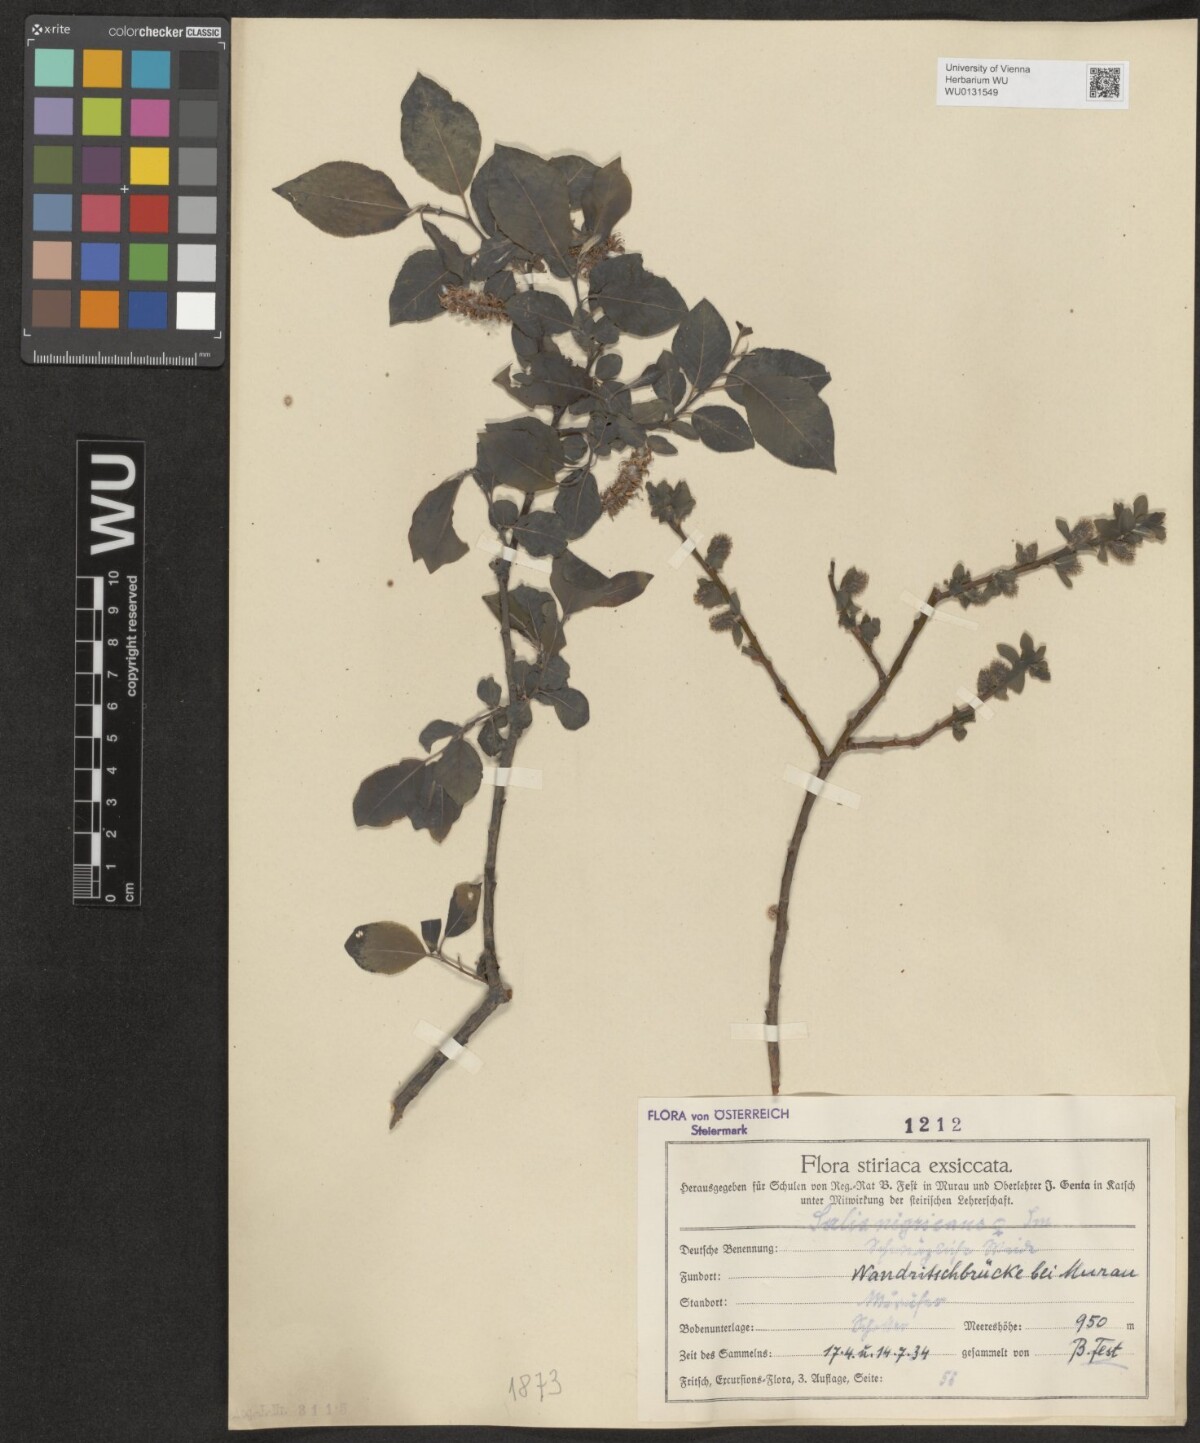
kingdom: Plantae
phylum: Tracheophyta
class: Magnoliopsida
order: Malpighiales
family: Salicaceae
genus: Salix
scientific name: Salix myrsinifolia
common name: Dark-leaved willow
